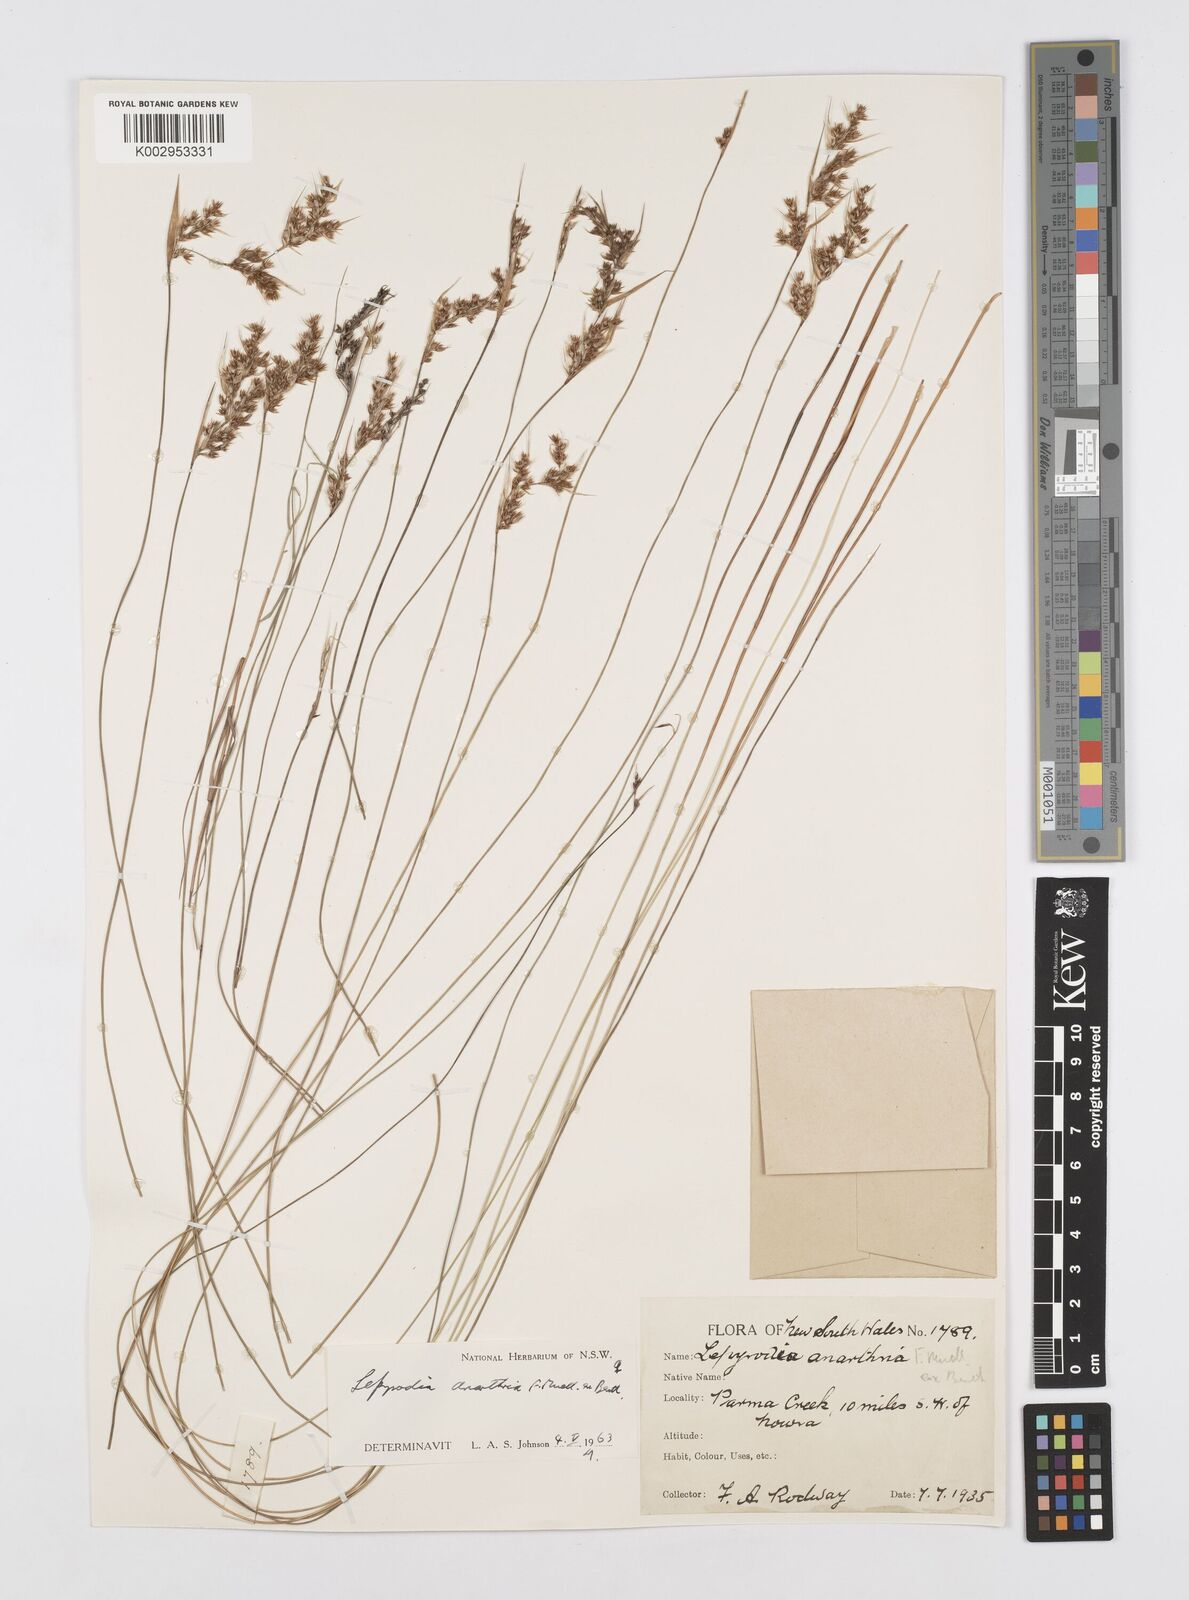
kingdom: Plantae
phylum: Tracheophyta
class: Liliopsida
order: Poales
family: Restionaceae
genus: Lepyrodia
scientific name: Lepyrodia anarthria
